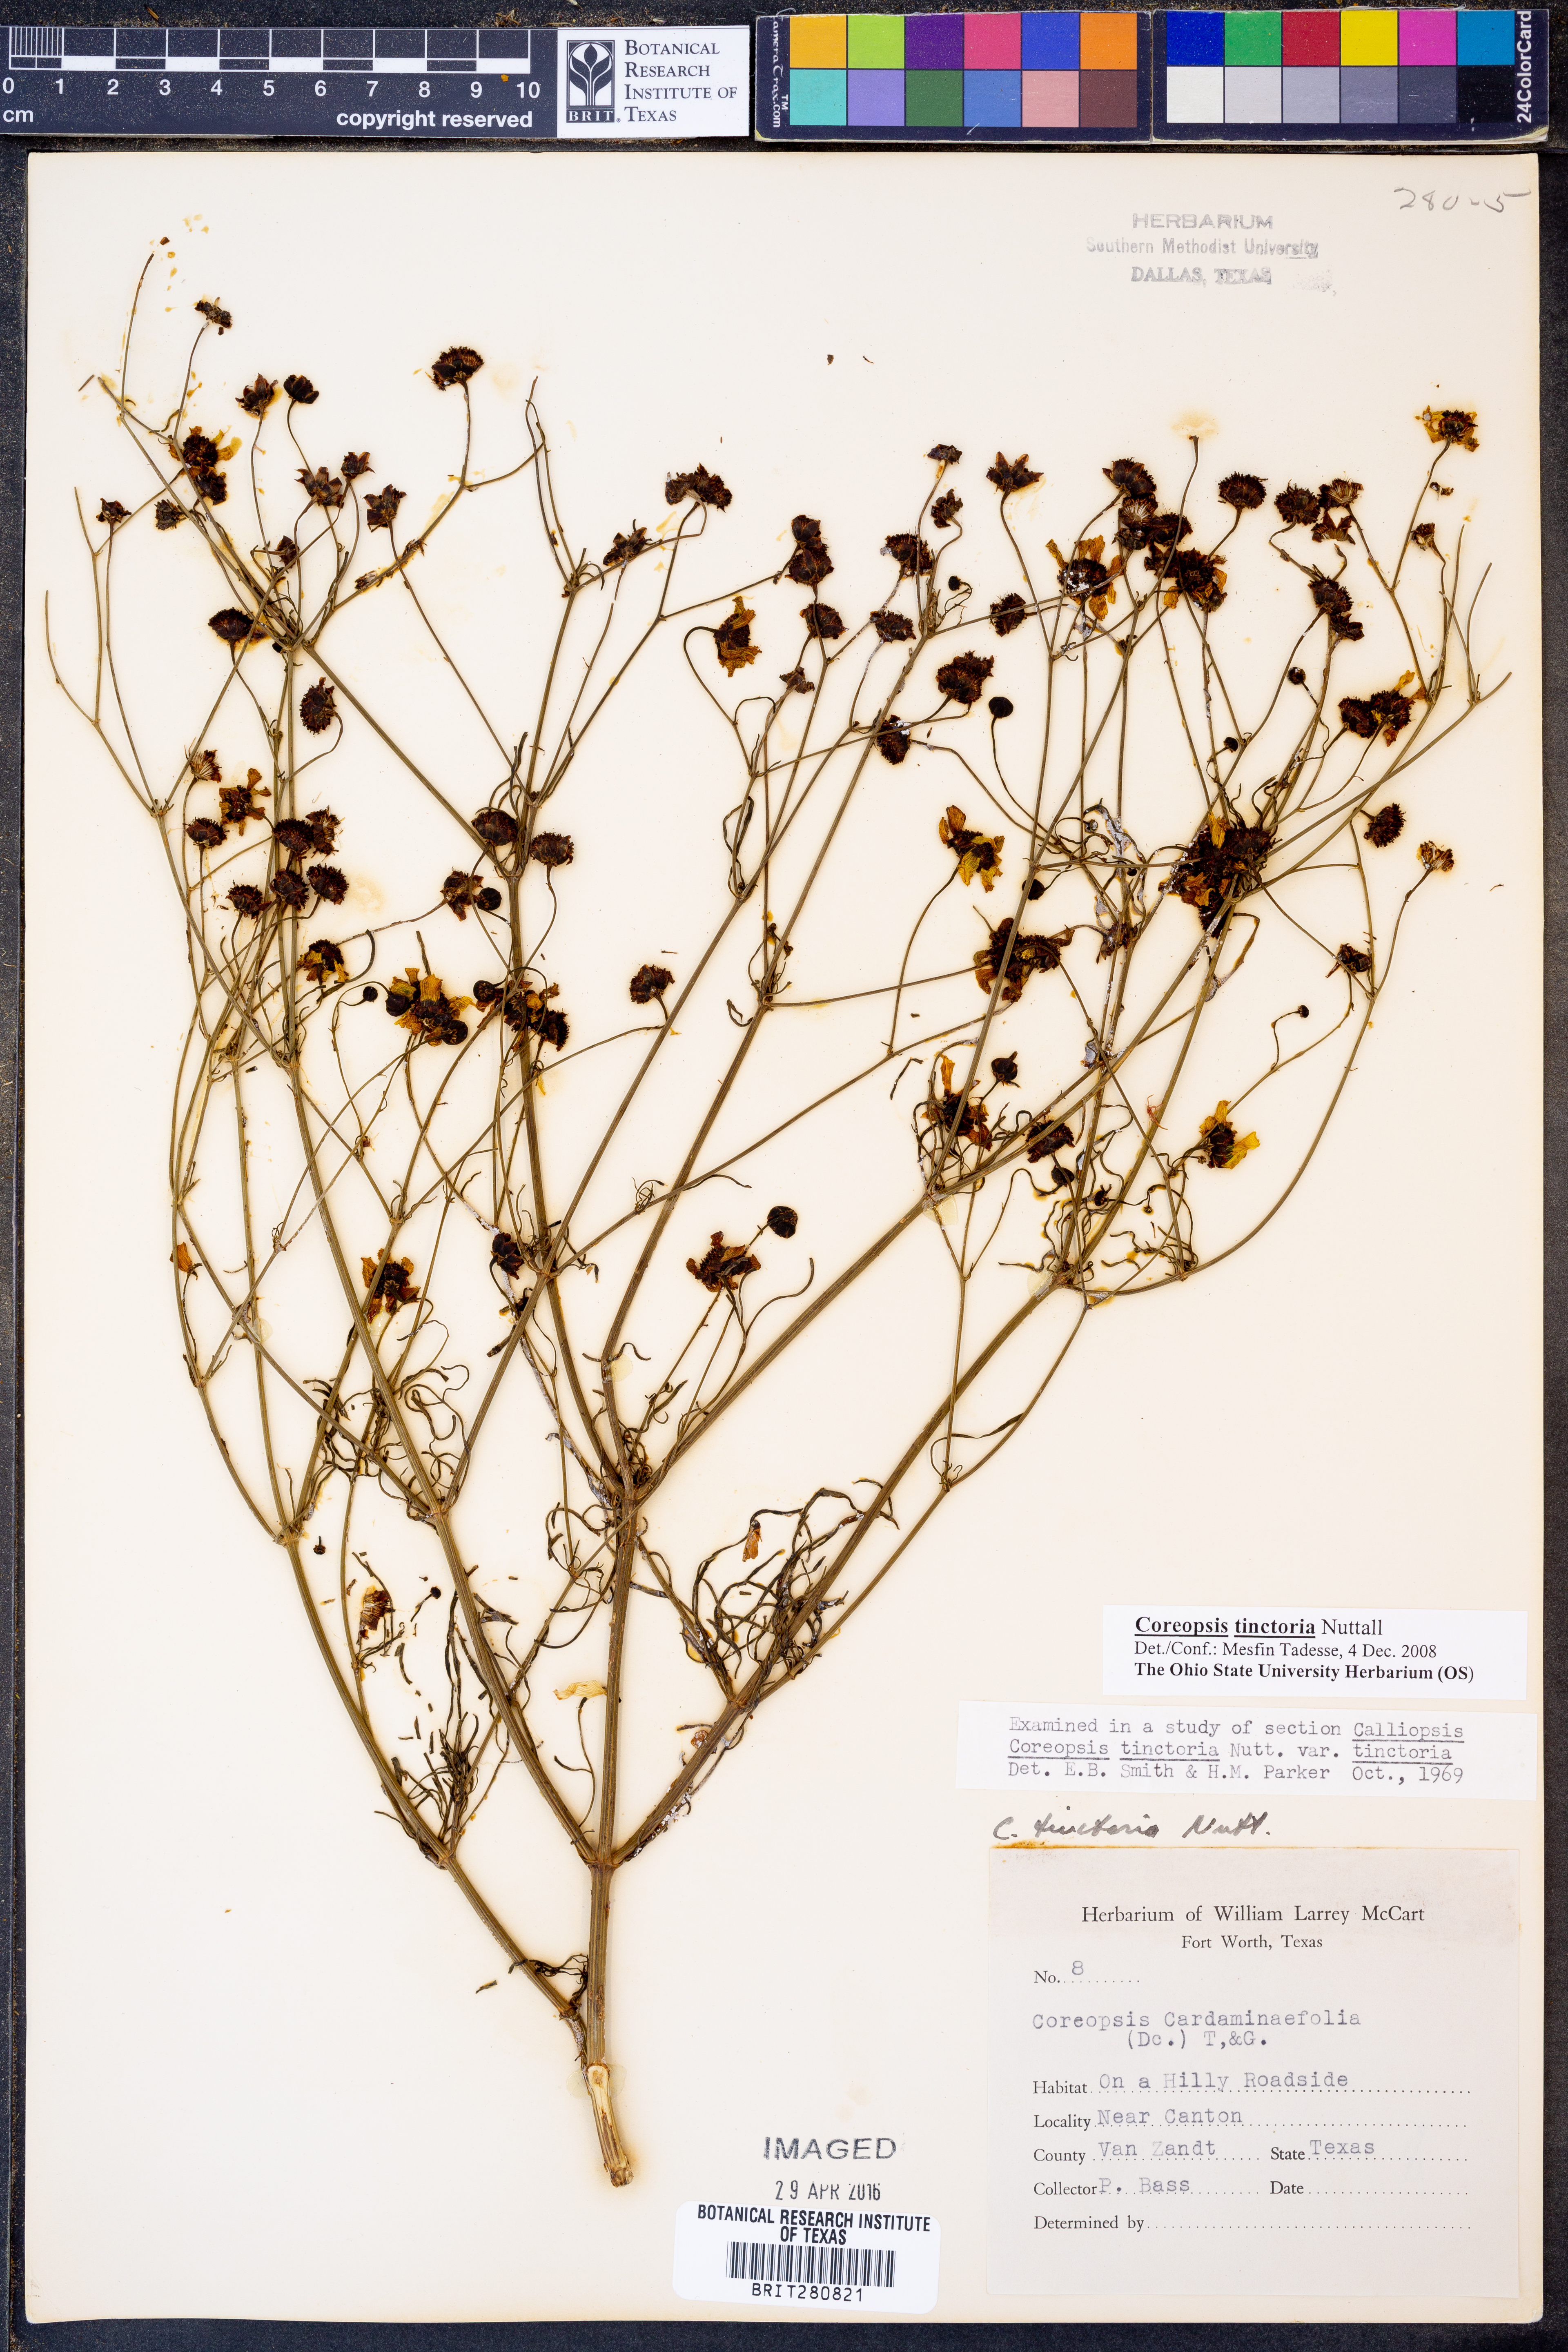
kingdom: Plantae
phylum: Tracheophyta
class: Magnoliopsida
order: Asterales
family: Asteraceae
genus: Coreopsis
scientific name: Coreopsis tinctoria
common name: Garden tickseed
